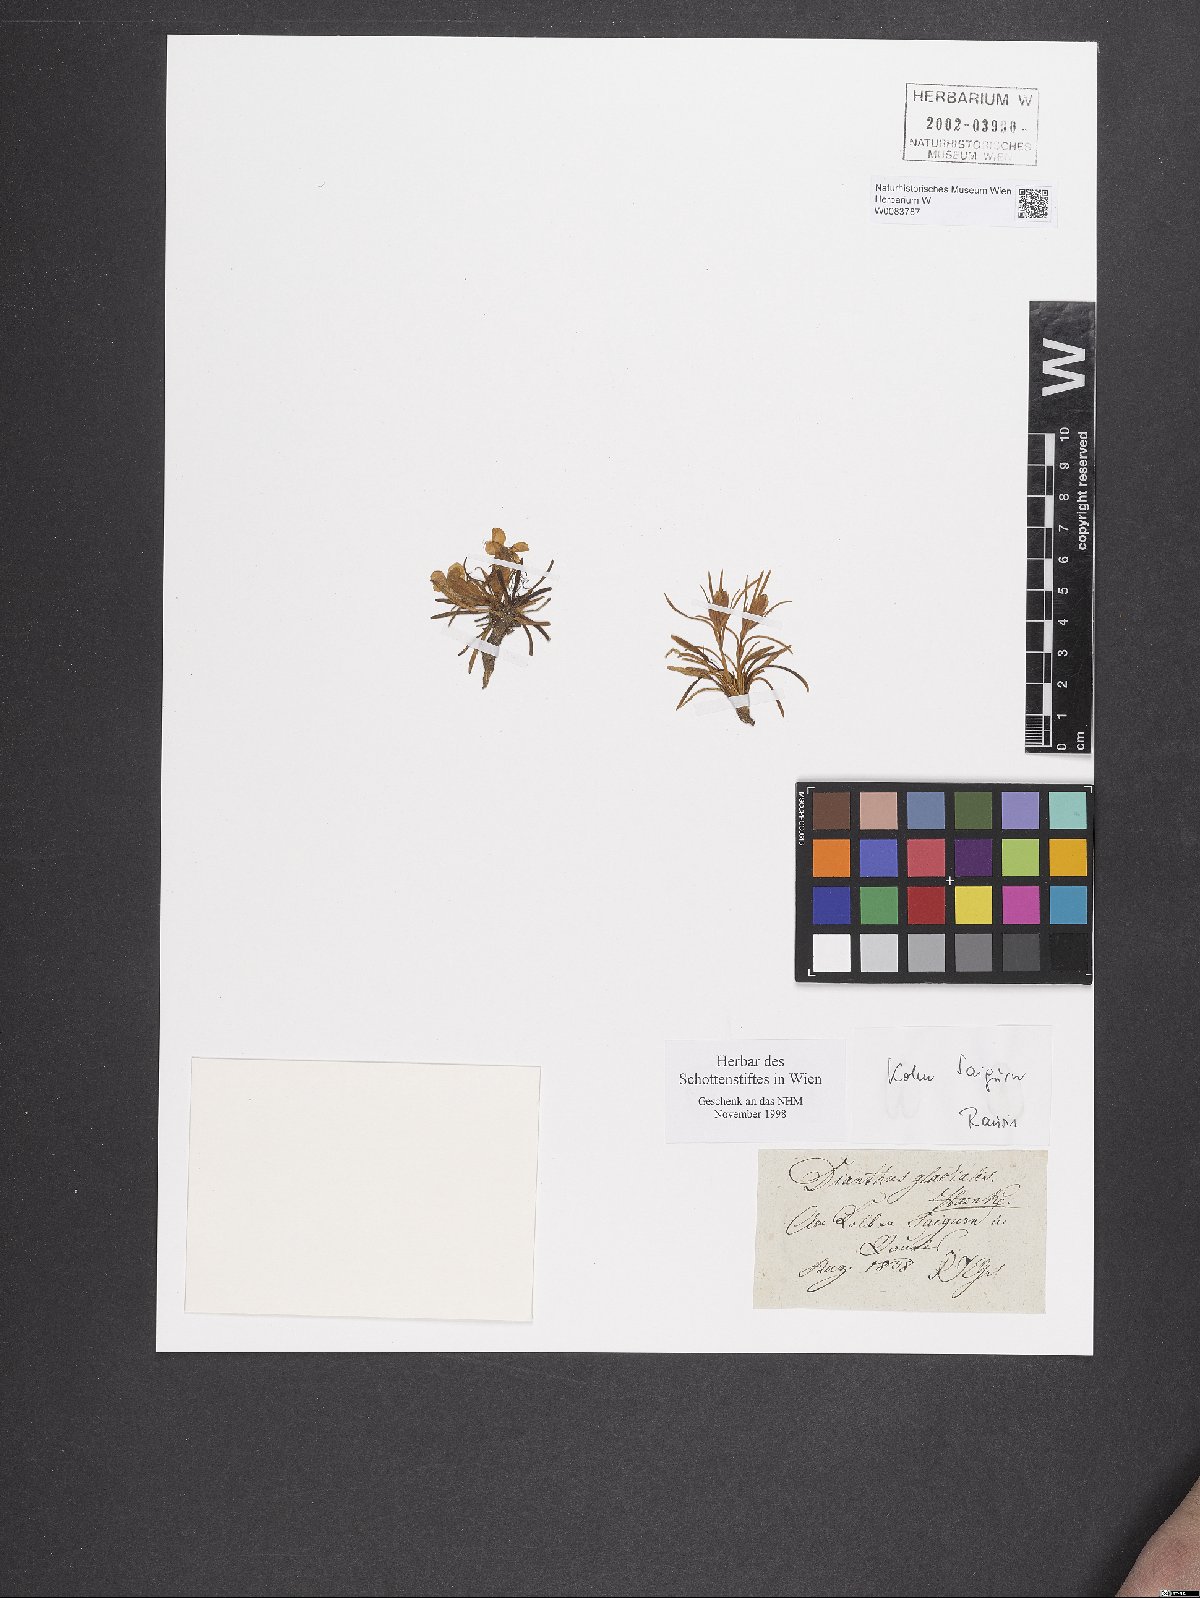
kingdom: Plantae
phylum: Tracheophyta
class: Magnoliopsida
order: Caryophyllales
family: Caryophyllaceae
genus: Dianthus
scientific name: Dianthus glacialis
